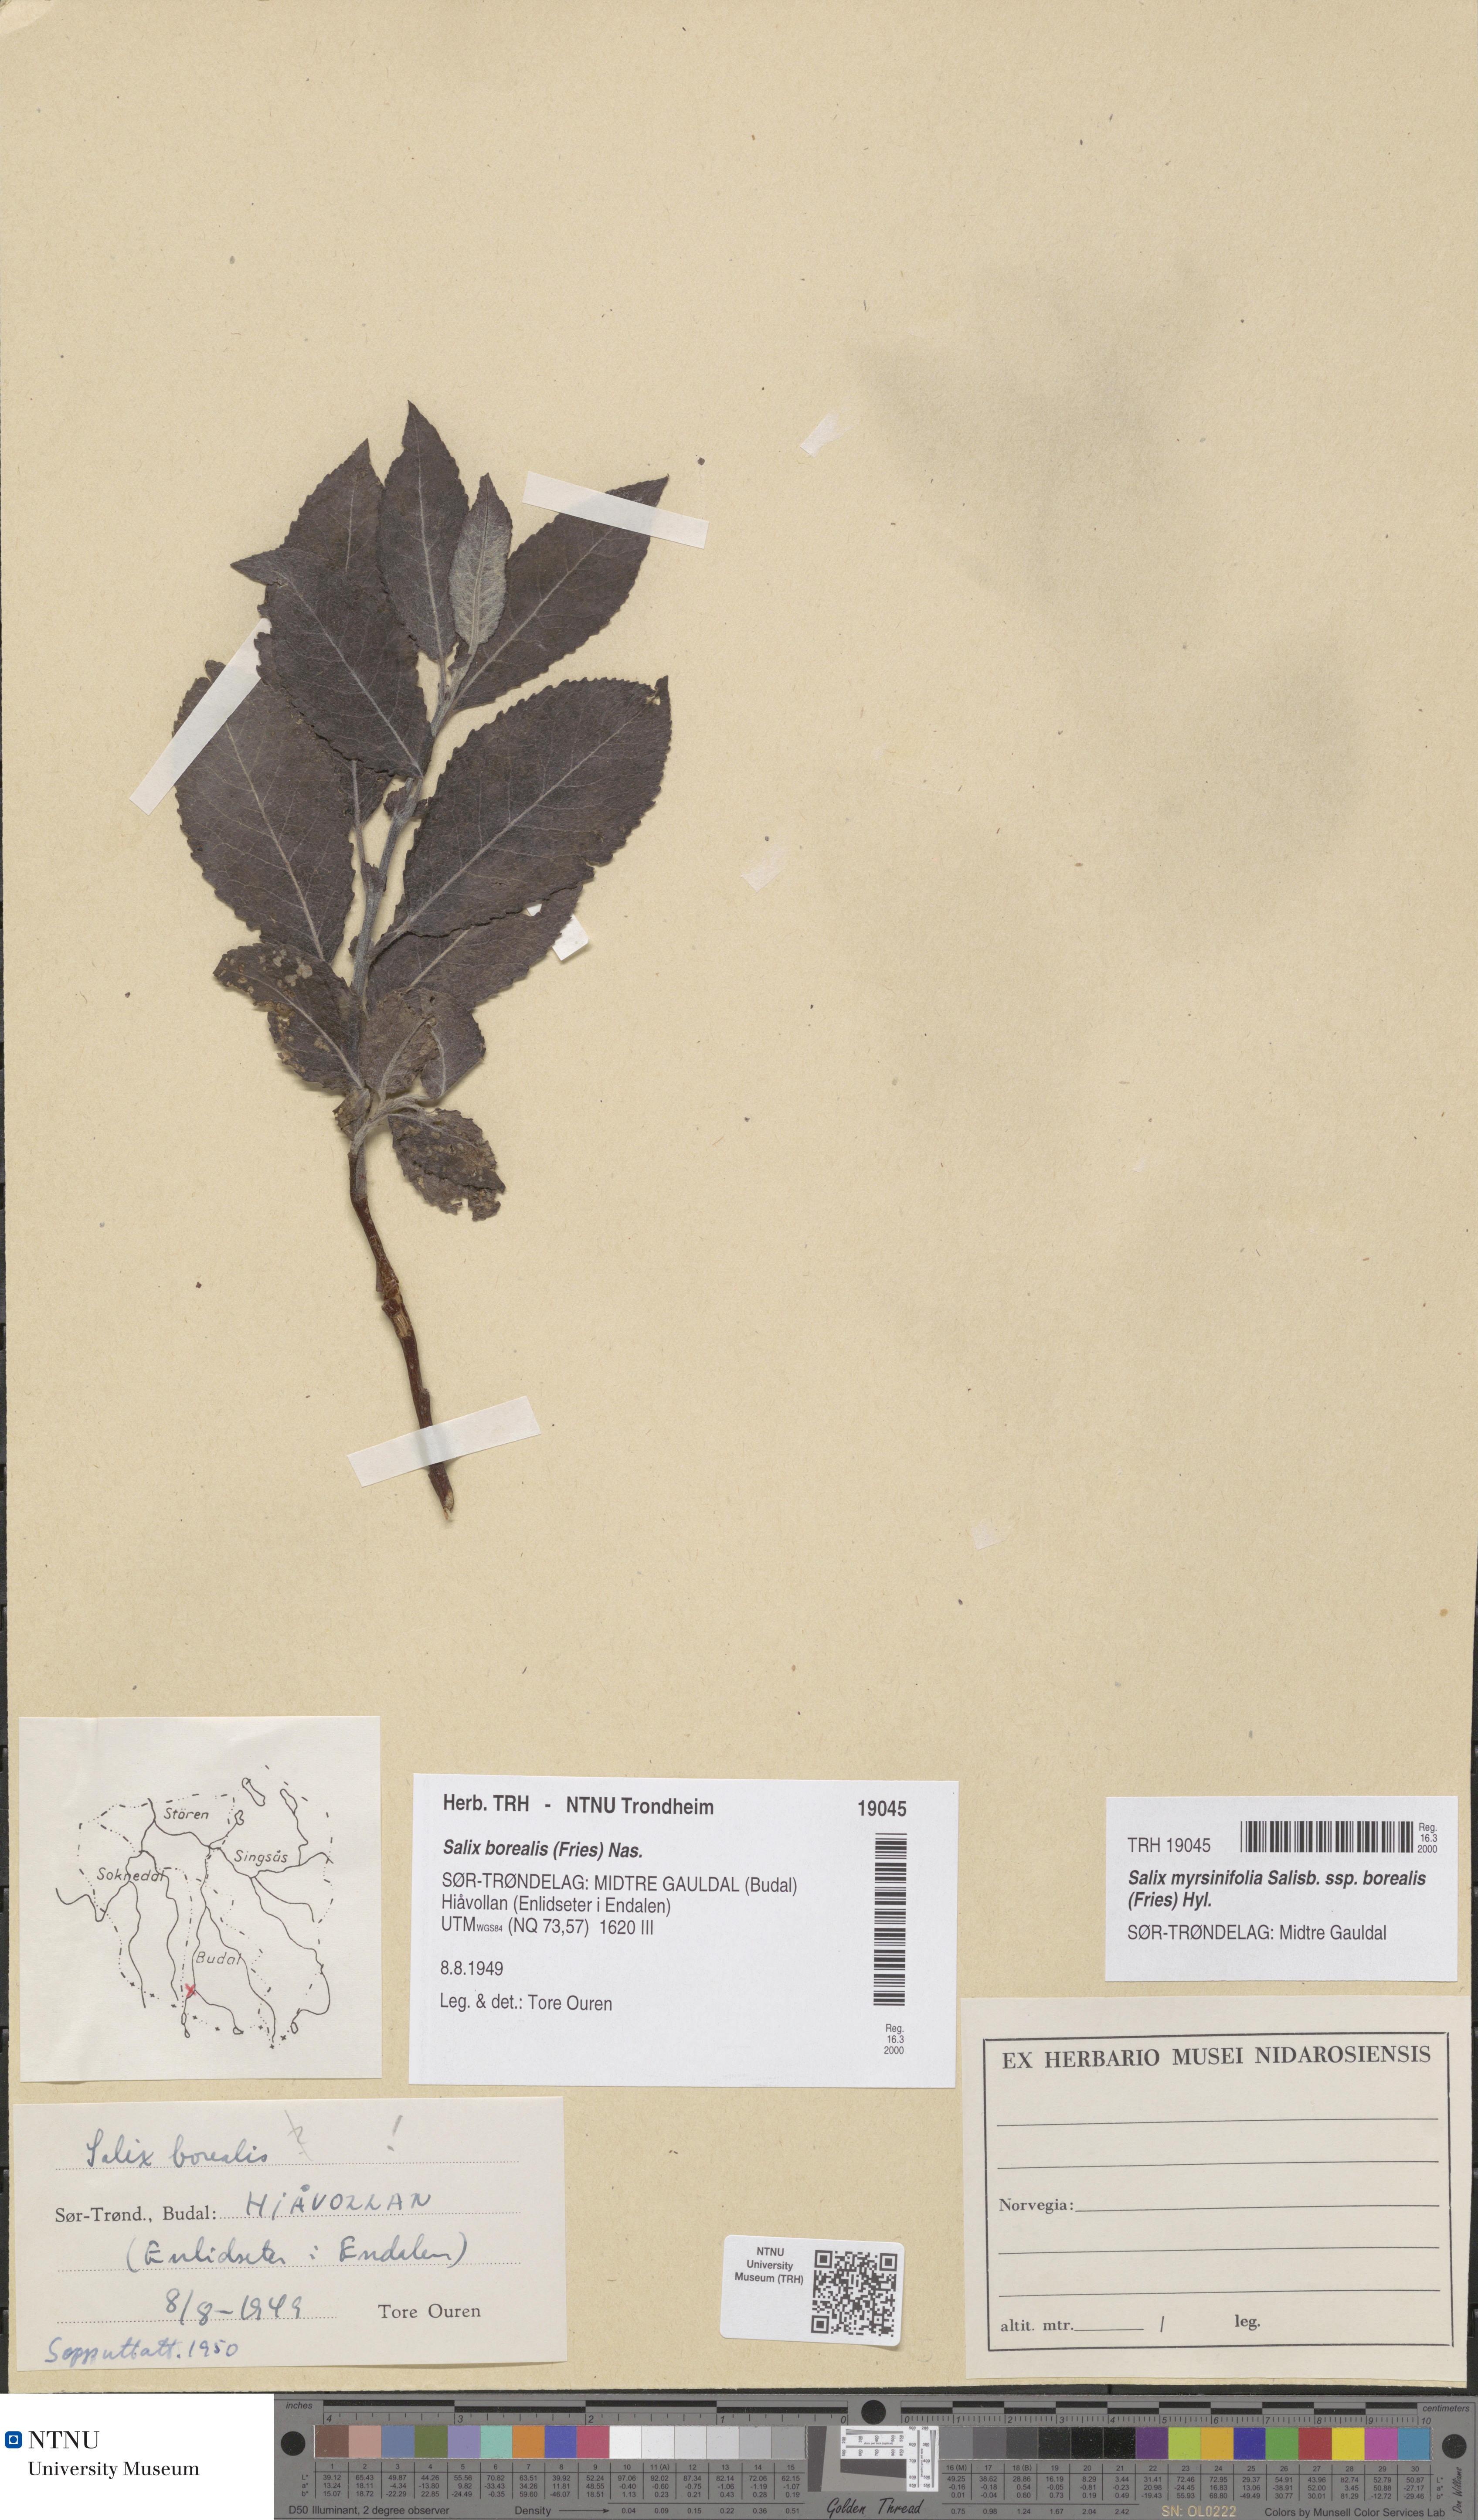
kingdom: Plantae
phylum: Tracheophyta
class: Magnoliopsida
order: Malpighiales
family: Salicaceae
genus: Salix
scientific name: Salix myrsinifolia
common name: Dark-leaved willow
